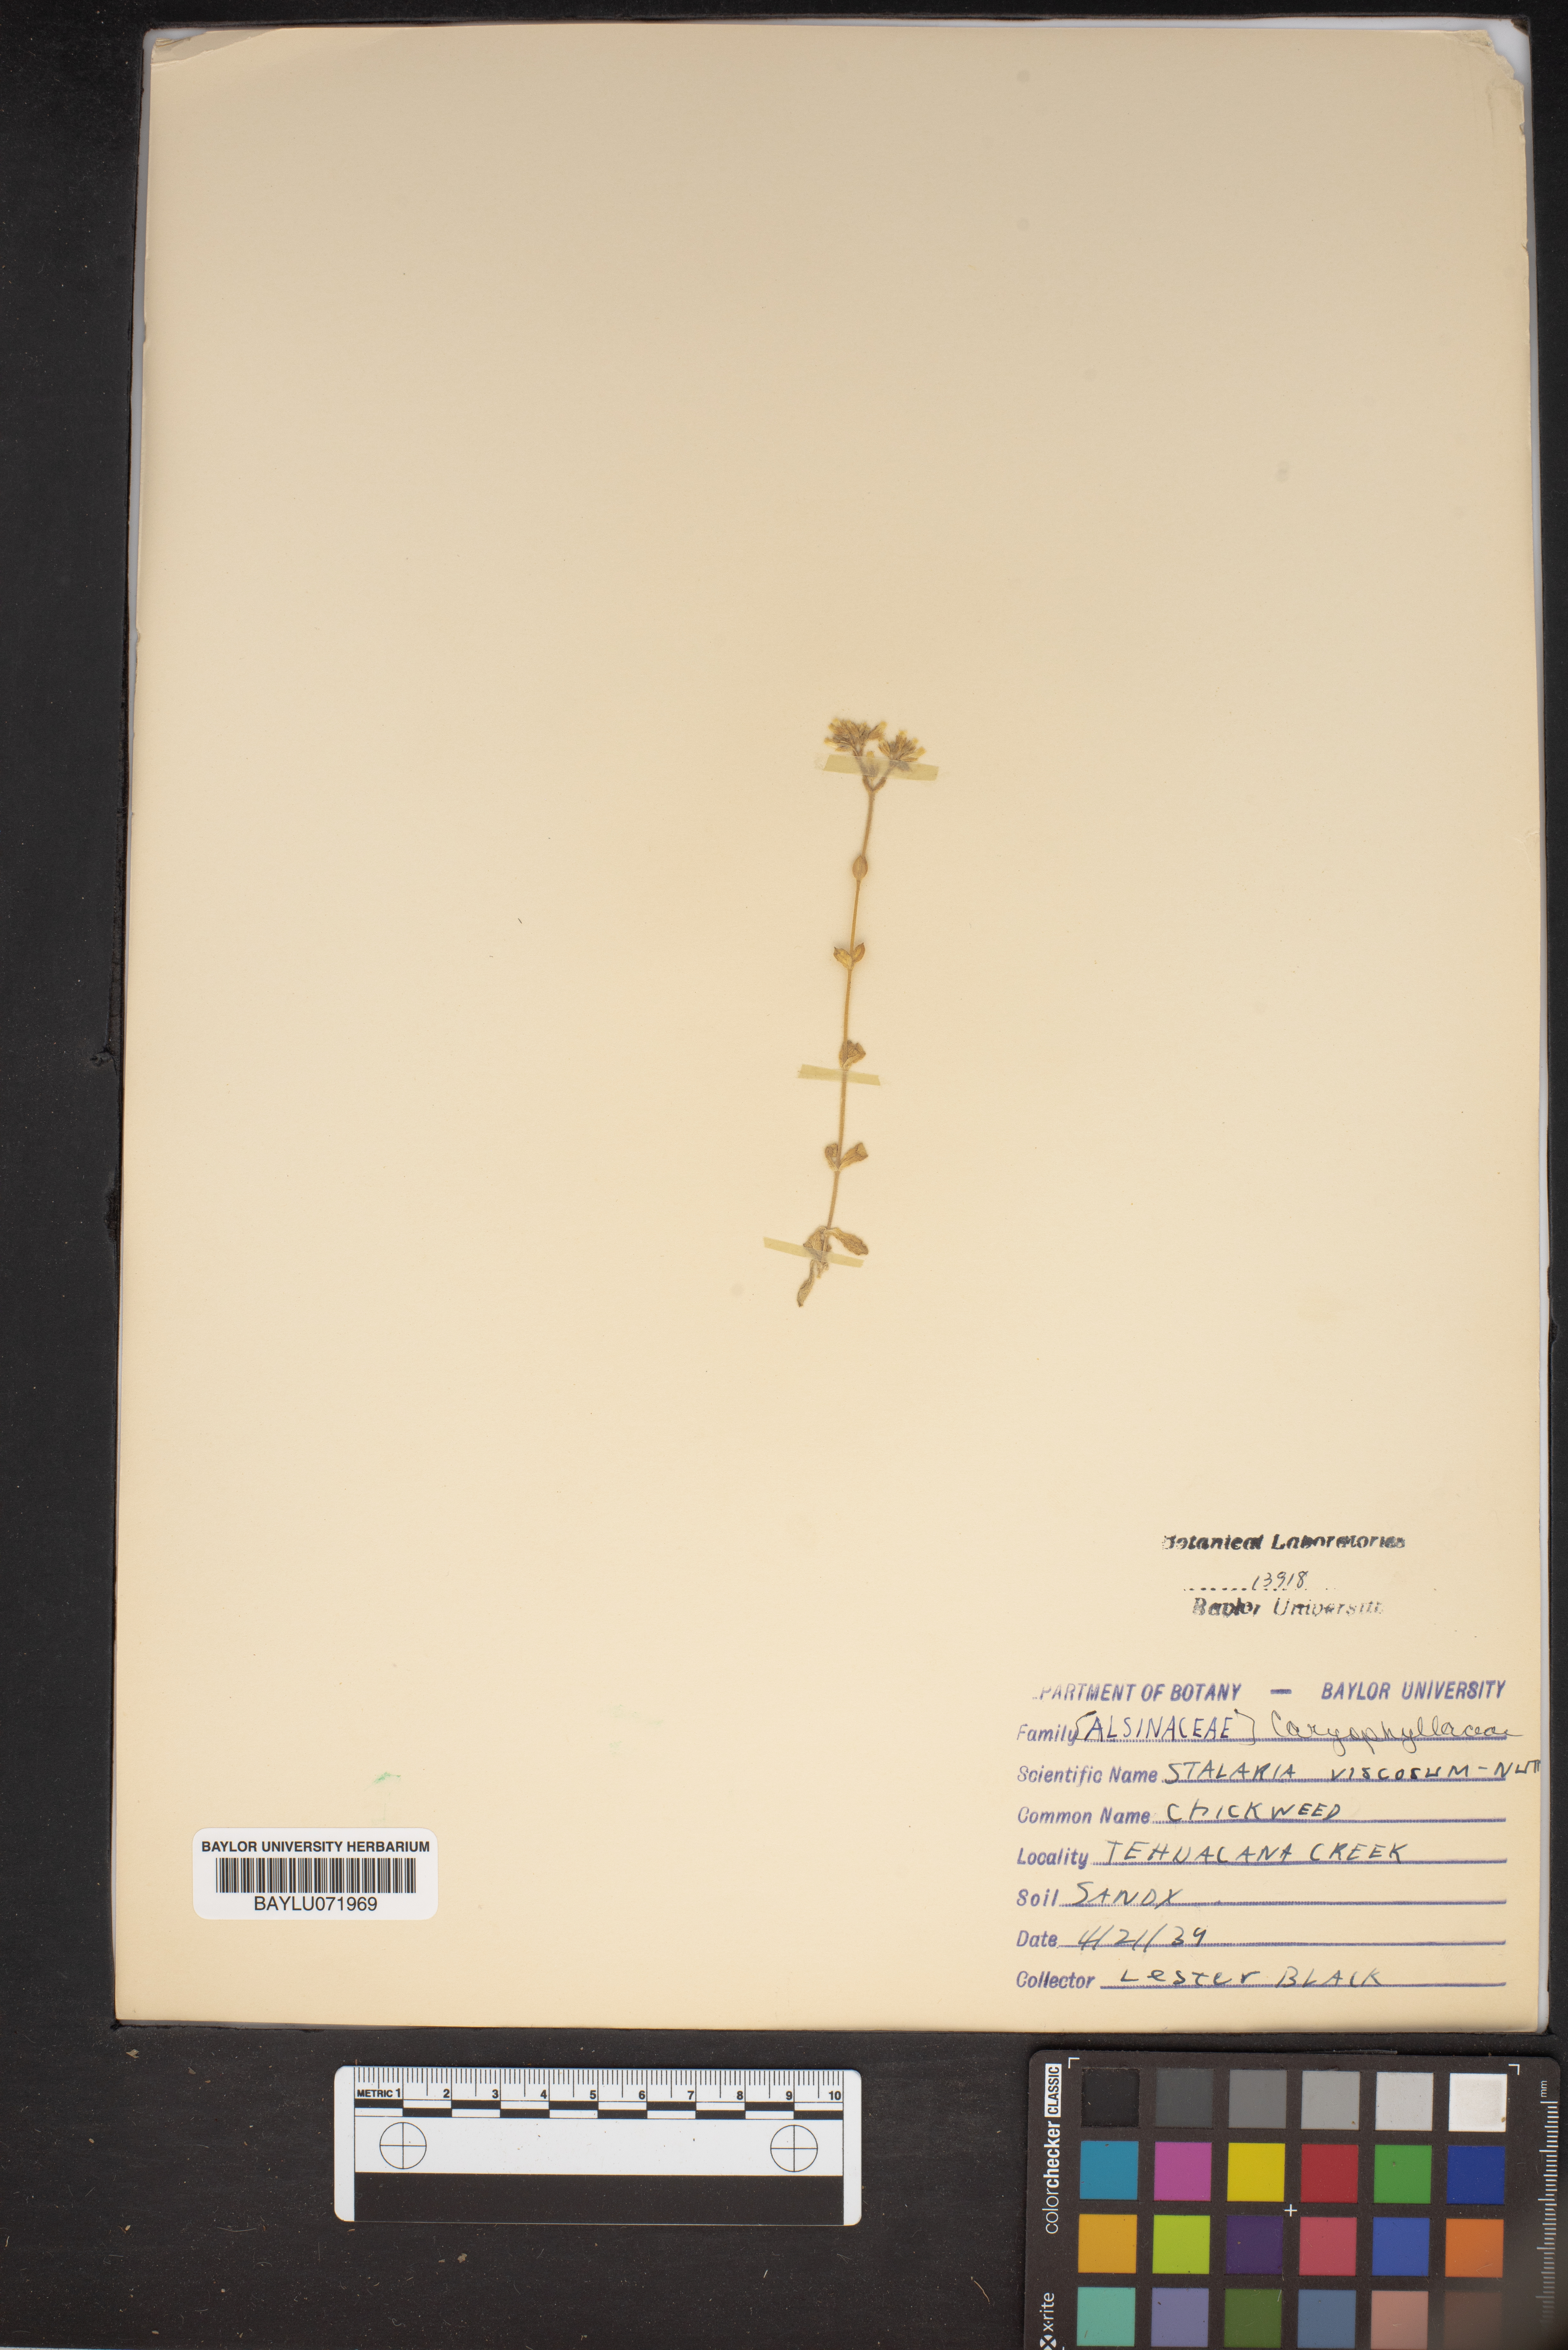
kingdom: Animalia
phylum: Arthropoda
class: Insecta
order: Hemiptera
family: Rhyparochromidae
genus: Stalaria
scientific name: Stalaria
